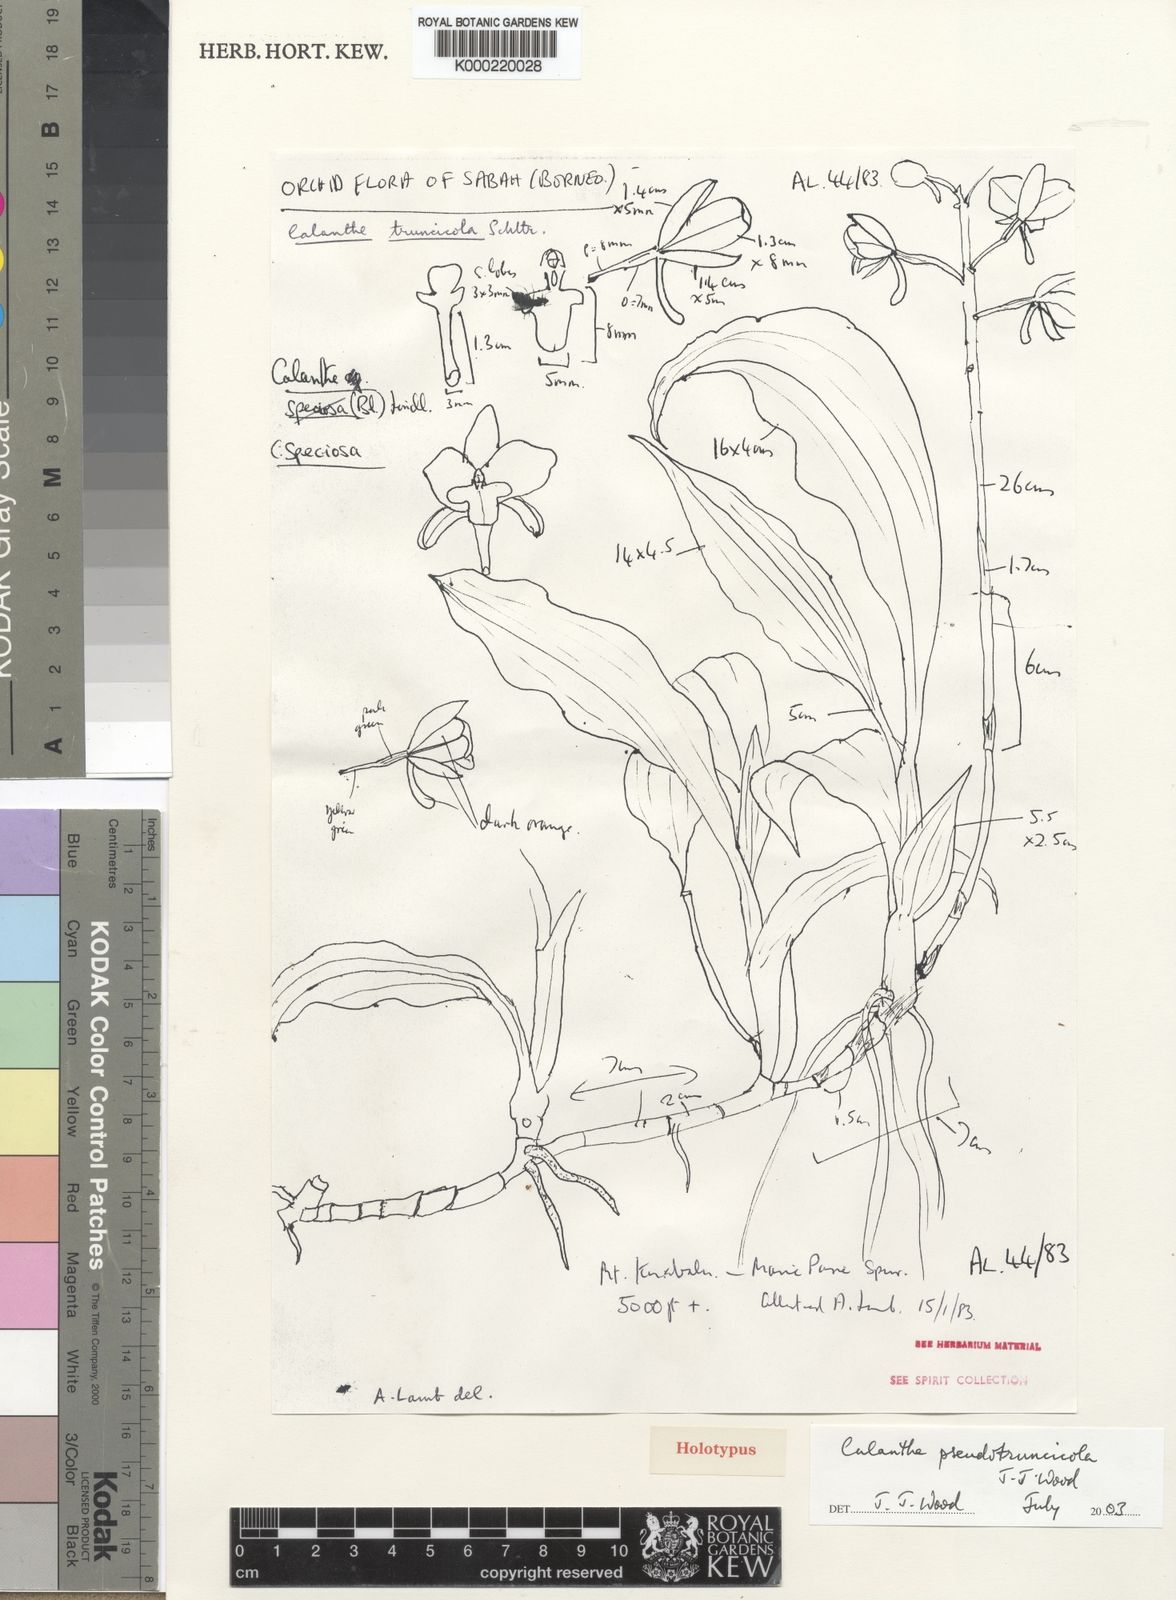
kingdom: Plantae
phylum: Tracheophyta
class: Liliopsida
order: Asparagales
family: Orchidaceae
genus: Calanthe
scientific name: Calanthe musa-amanii
